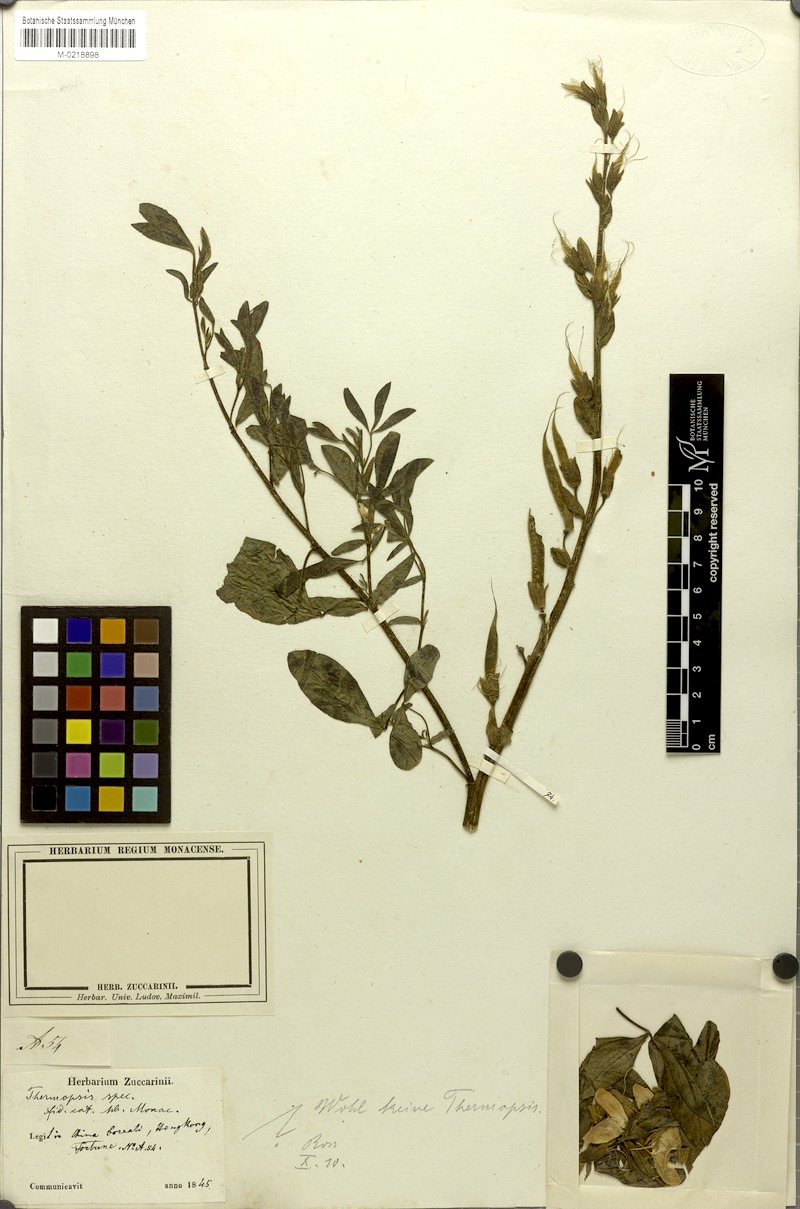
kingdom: Plantae
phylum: Tracheophyta
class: Magnoliopsida
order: Fabales
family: Fabaceae
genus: Thermopsis
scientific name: Thermopsis chinensis
